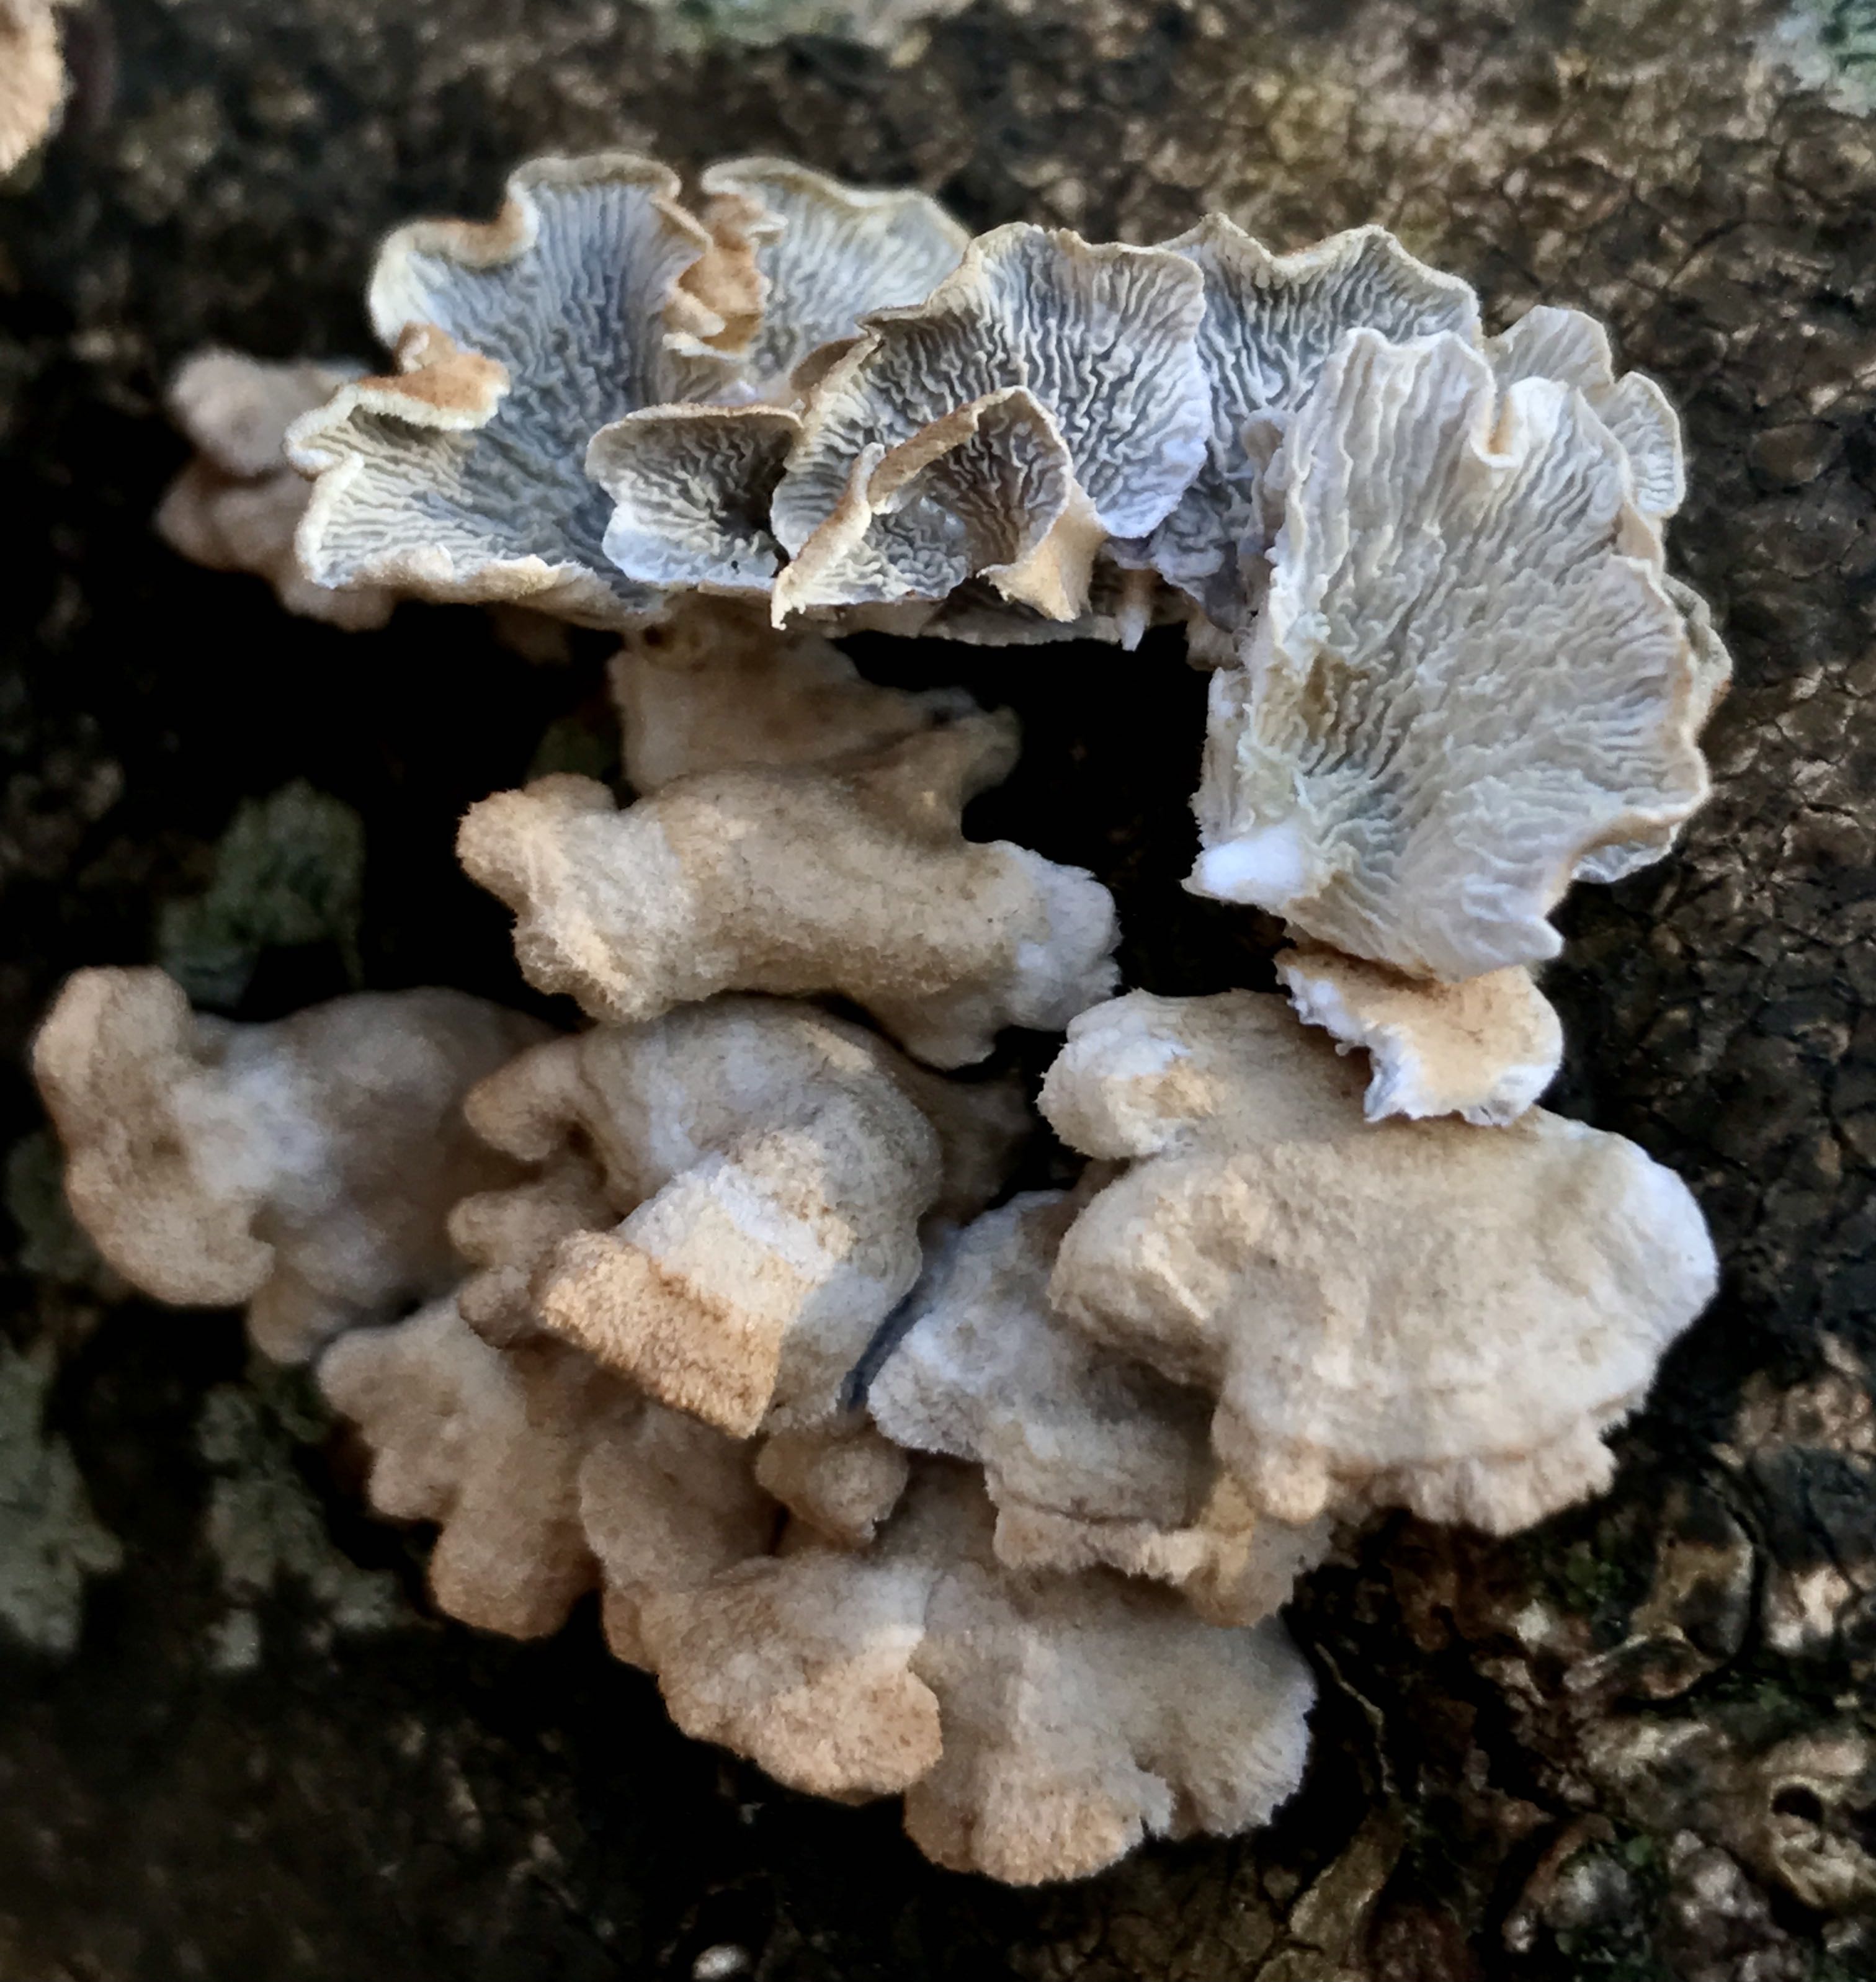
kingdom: Fungi
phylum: Basidiomycota
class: Agaricomycetes
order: Amylocorticiales
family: Amylocorticiaceae
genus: Plicaturopsis
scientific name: Plicaturopsis crispa
